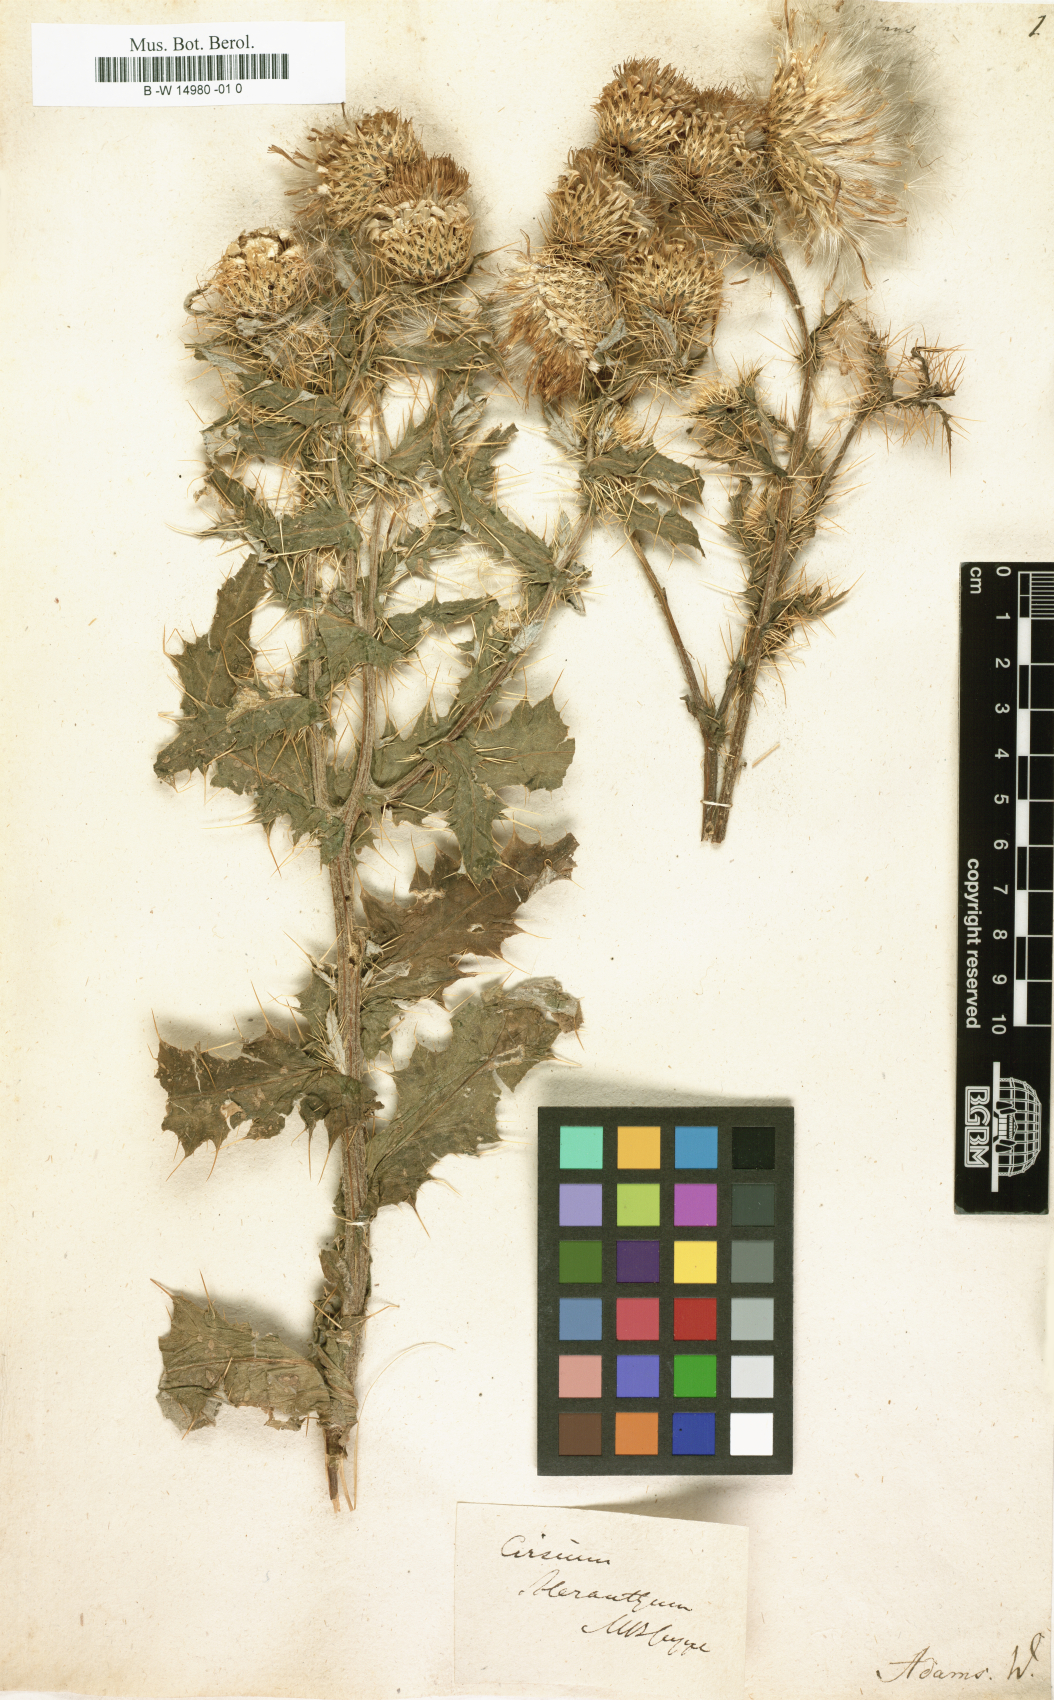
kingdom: Plantae
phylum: Tracheophyta
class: Magnoliopsida
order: Asterales
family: Asteraceae
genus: Cirsium
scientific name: Cirsium echinus
